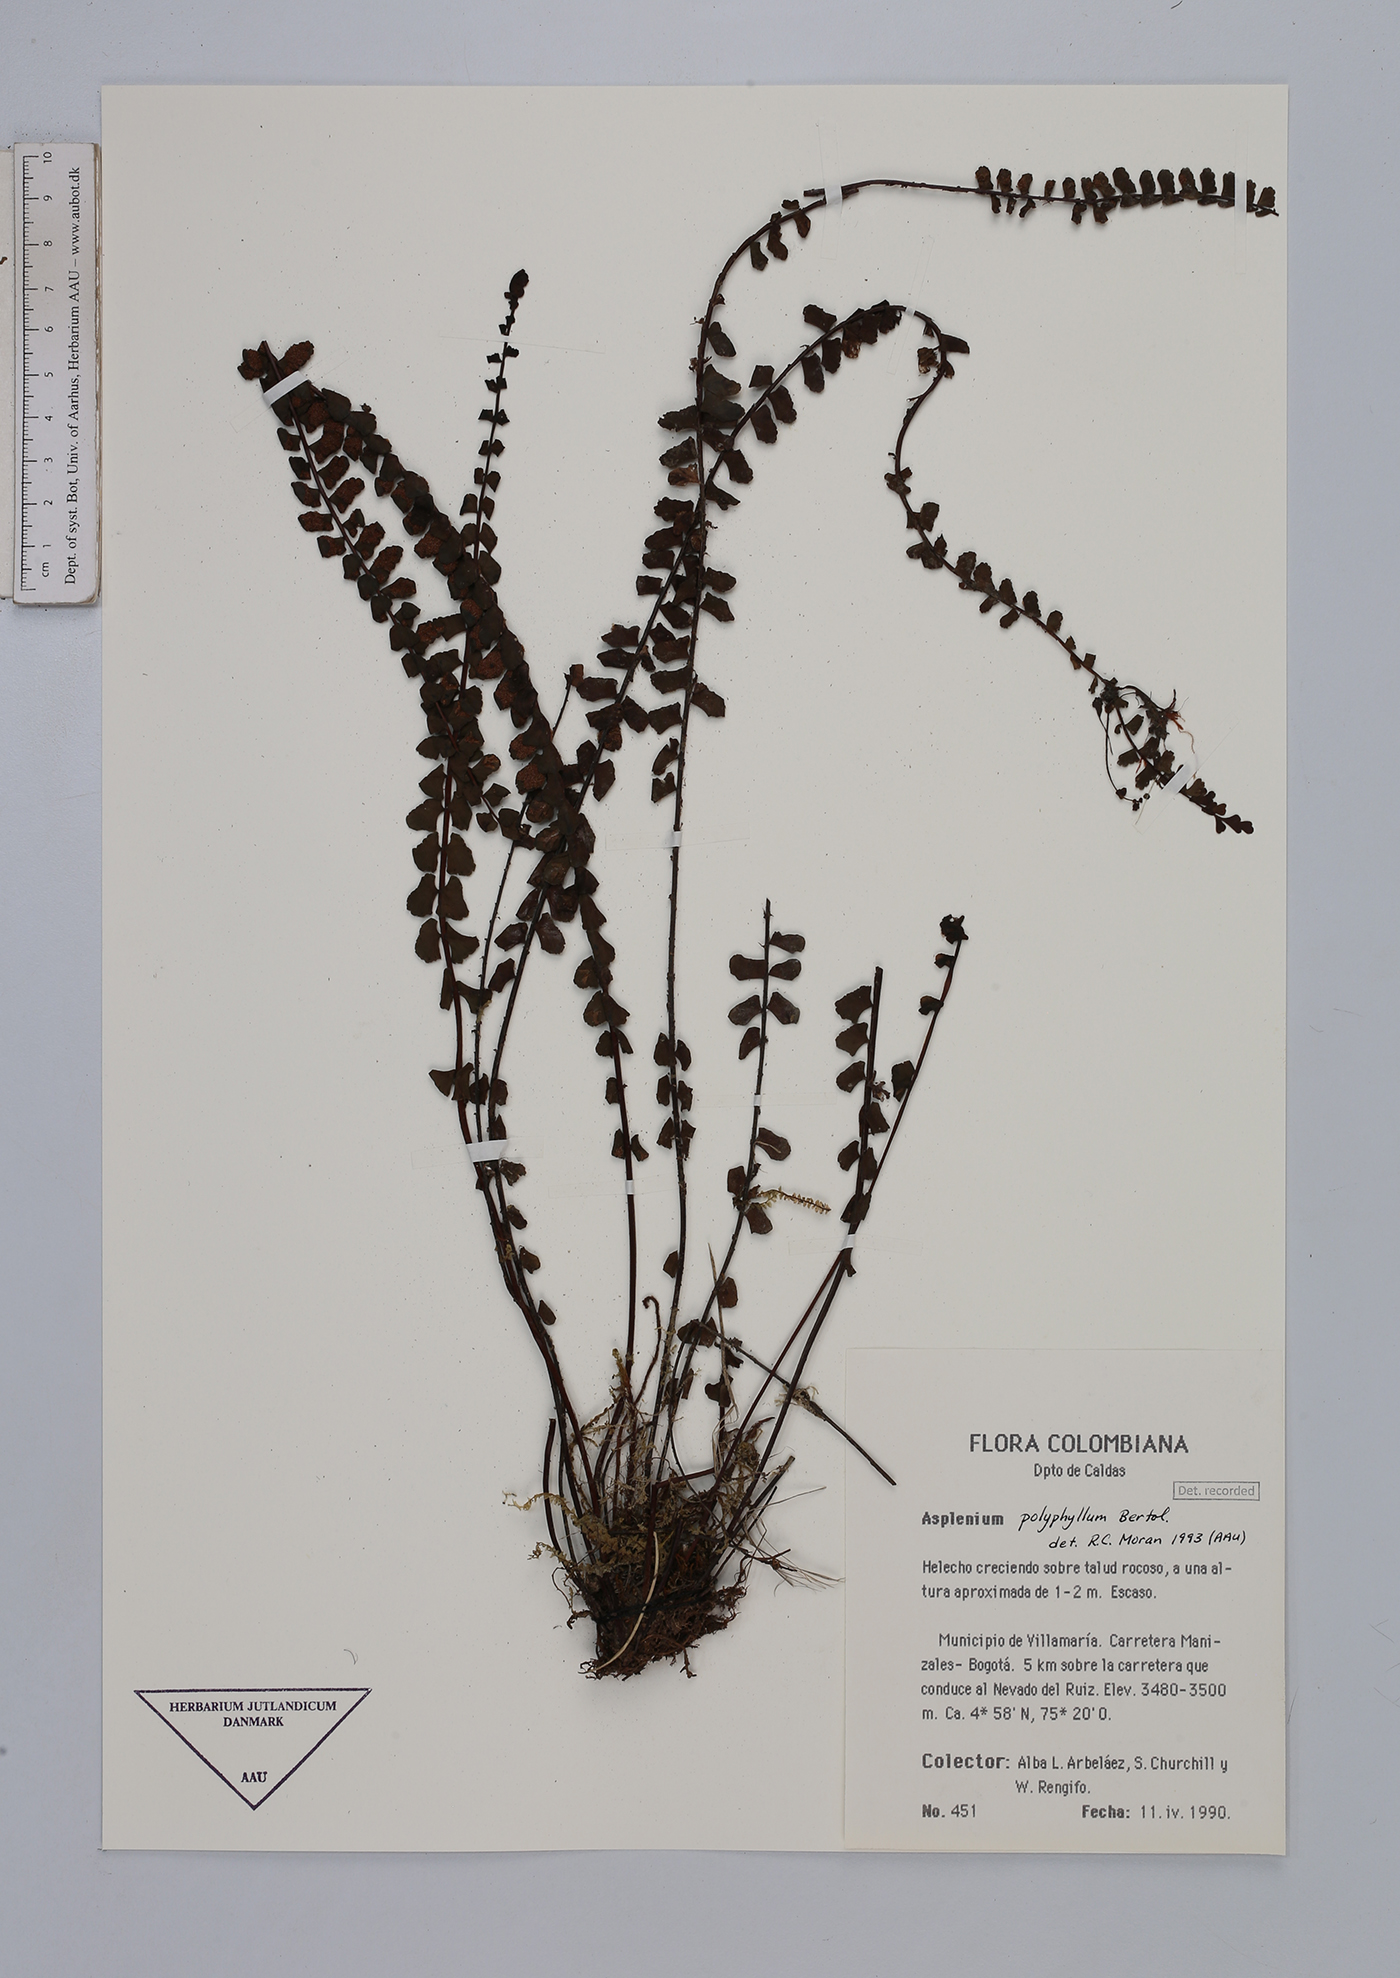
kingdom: Plantae
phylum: Tracheophyta
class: Polypodiopsida
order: Polypodiales
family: Aspleniaceae
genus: Asplenium
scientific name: Asplenium polyphyllum
